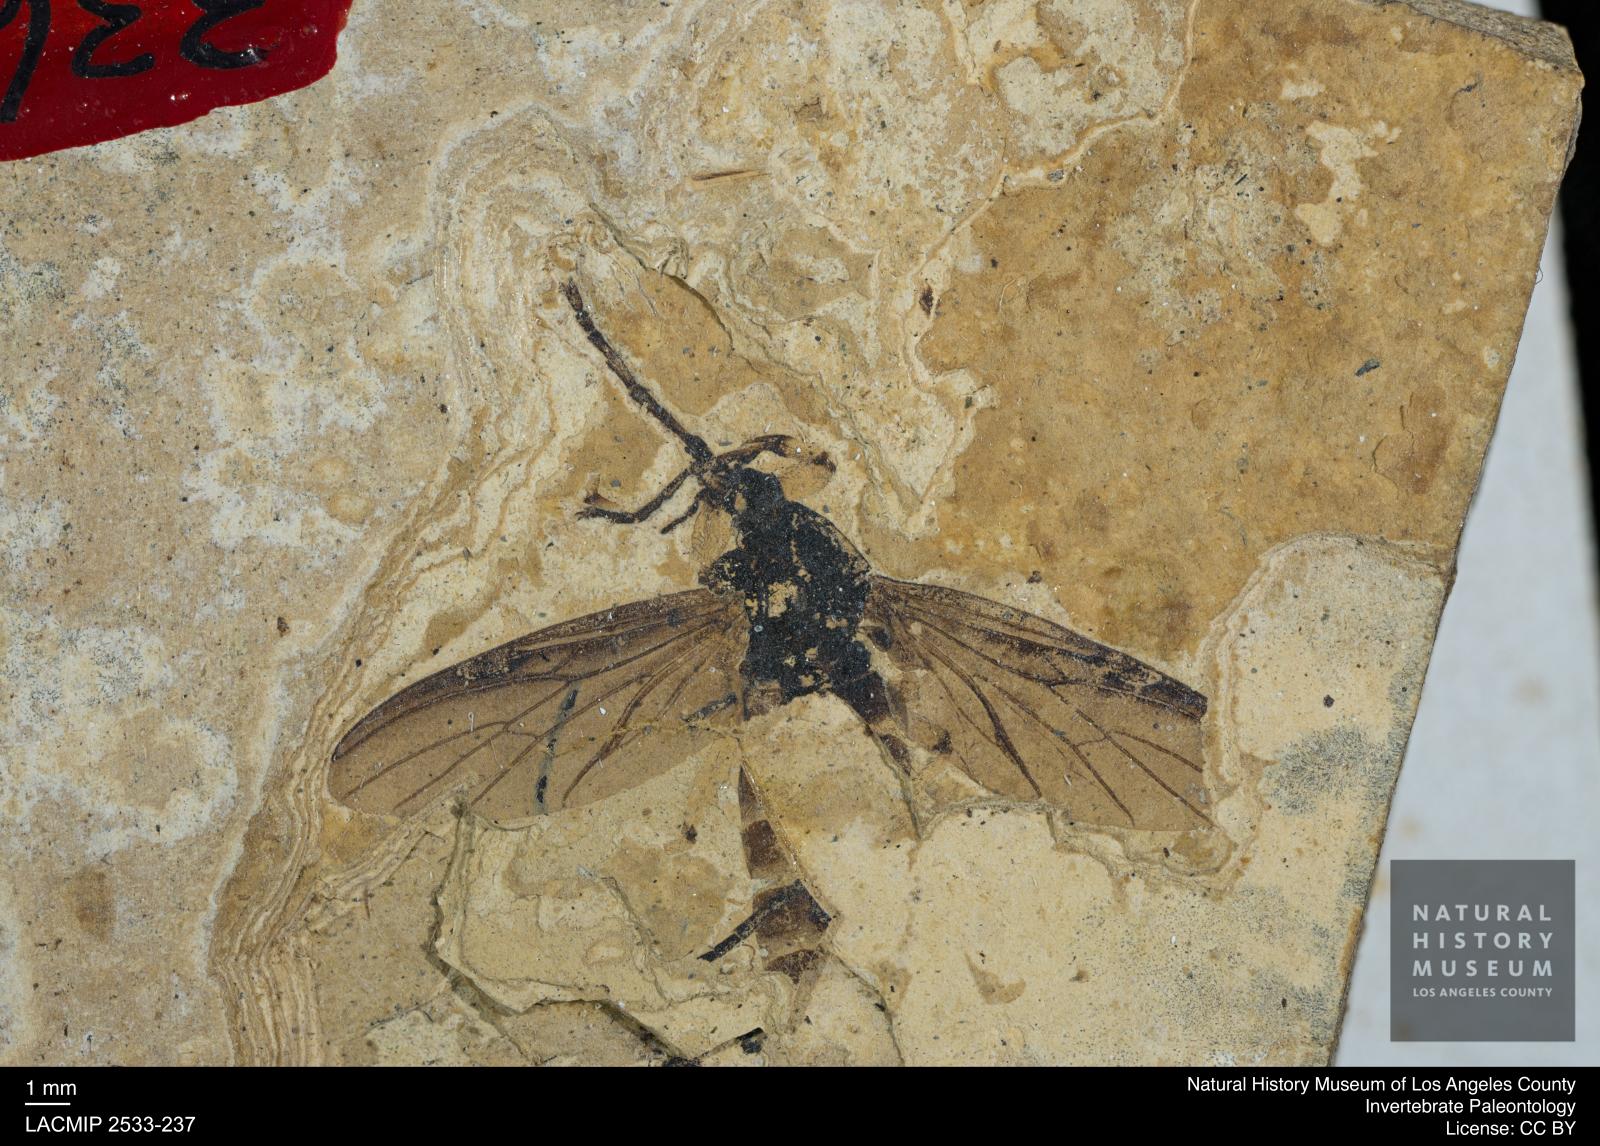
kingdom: Animalia
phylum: Arthropoda
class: Insecta
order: Diptera
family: Bibionidae
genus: Bibio
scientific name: Bibio rohli
